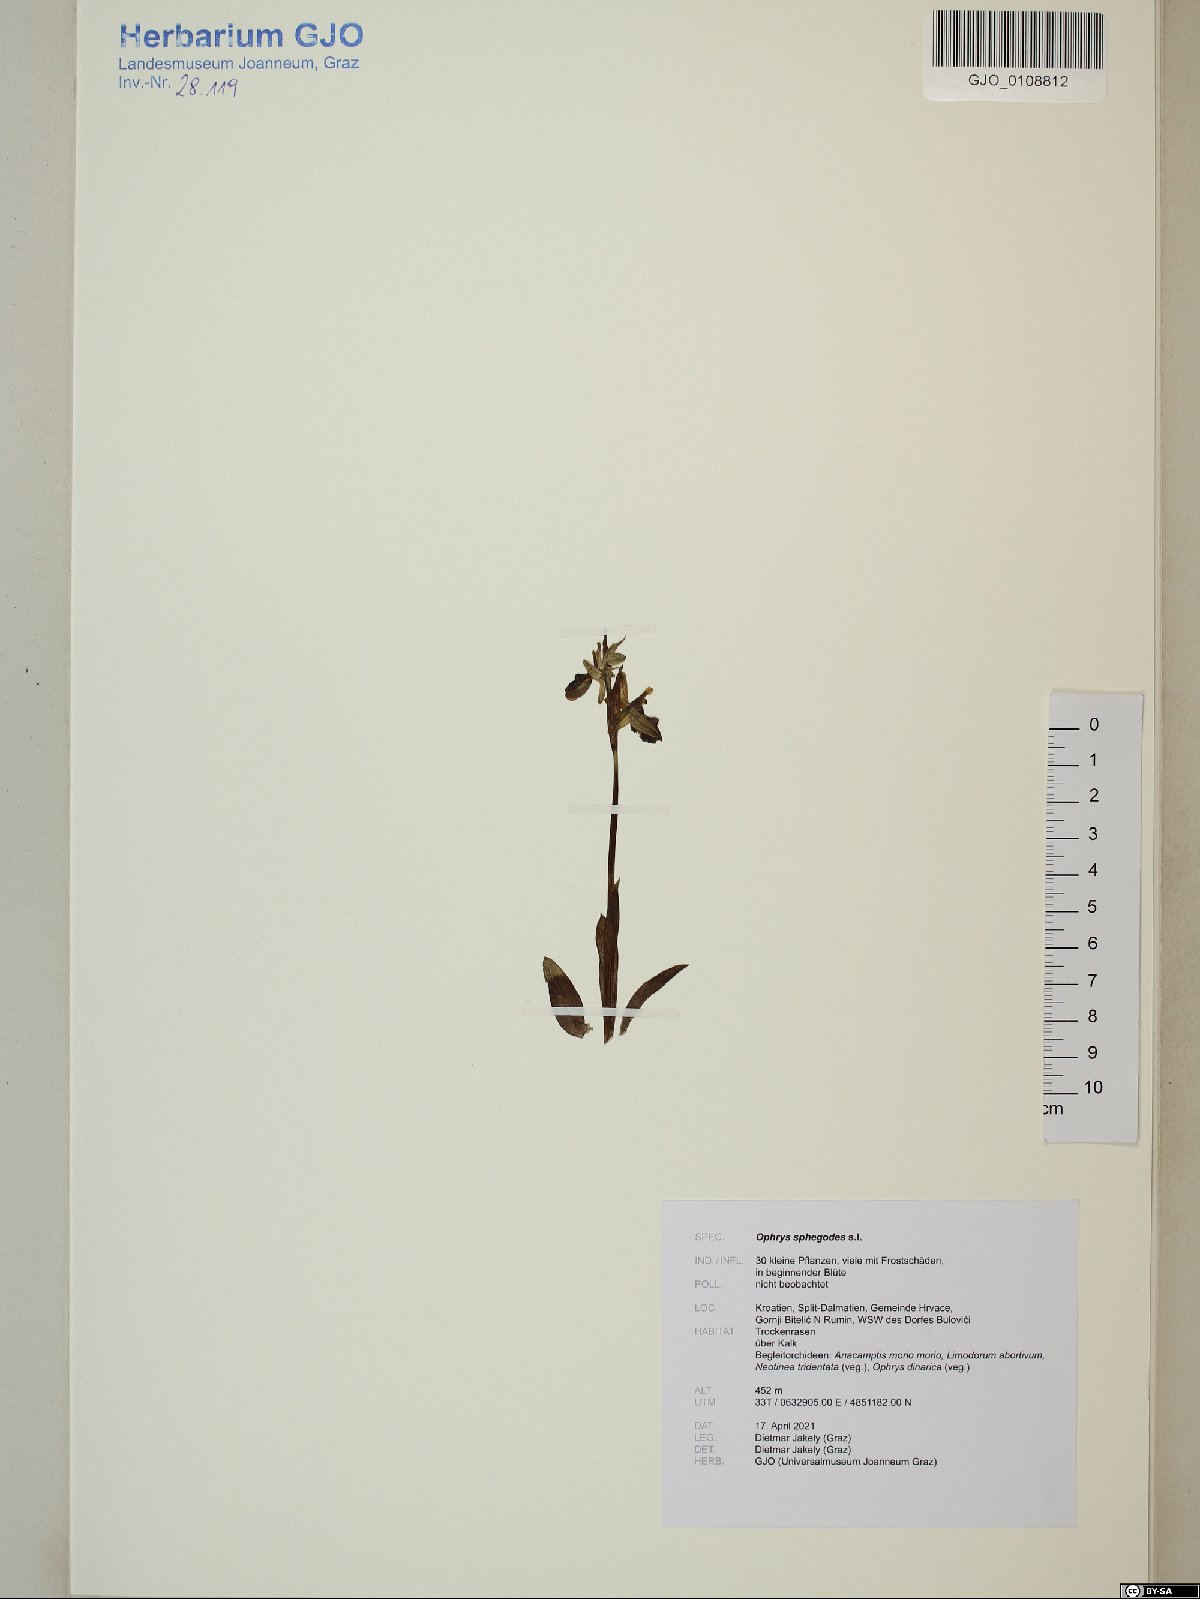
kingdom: Plantae
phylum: Tracheophyta
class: Liliopsida
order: Asparagales
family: Orchidaceae
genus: Ophrys
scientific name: Ophrys sphegodes
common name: Early spider-orchid
